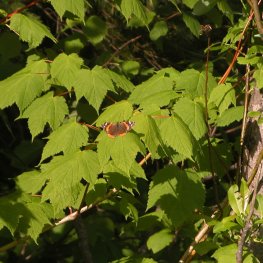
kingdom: Animalia
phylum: Arthropoda
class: Insecta
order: Lepidoptera
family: Nymphalidae
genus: Vanessa
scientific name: Vanessa atalanta
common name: Red Admiral
